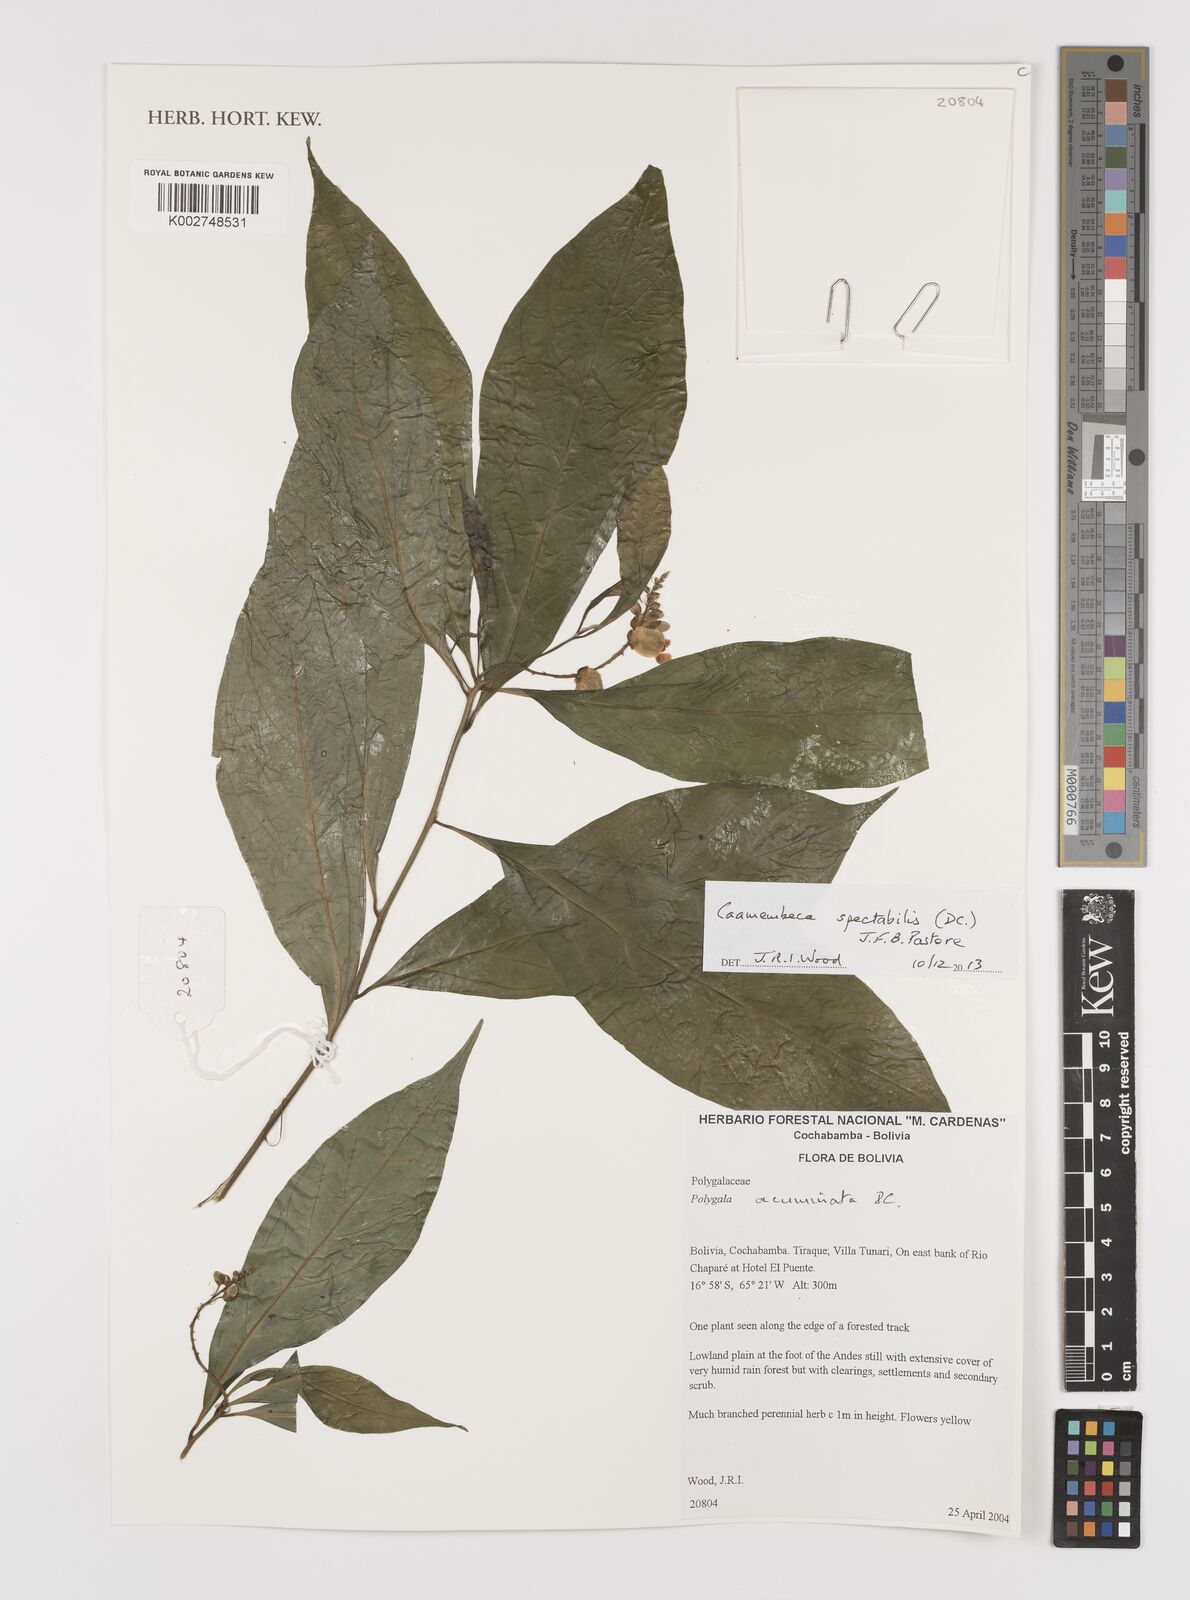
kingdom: Plantae
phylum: Tracheophyta
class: Magnoliopsida
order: Fabales
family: Polygalaceae
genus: Caamembeca
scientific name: Caamembeca spectabilis
